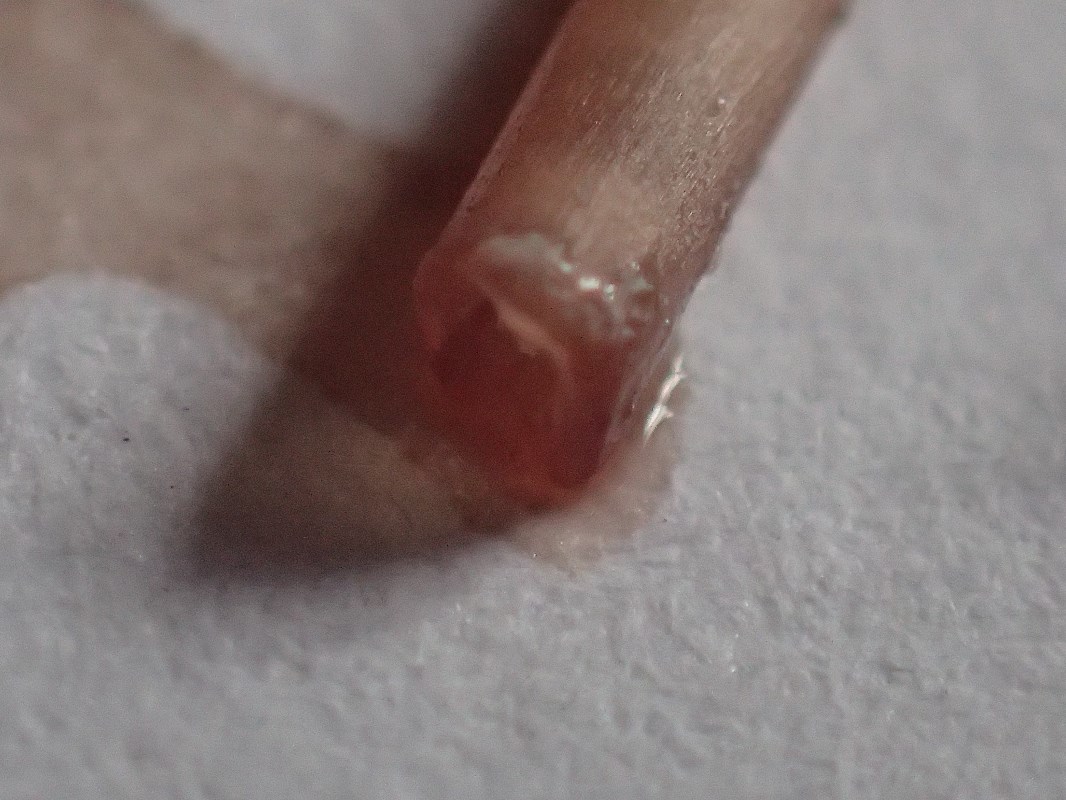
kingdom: Fungi
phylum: Basidiomycota
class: Agaricomycetes
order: Agaricales
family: Mycenaceae
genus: Mycena
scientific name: Mycena sanguinolenta
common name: rødmælket huesvamp
